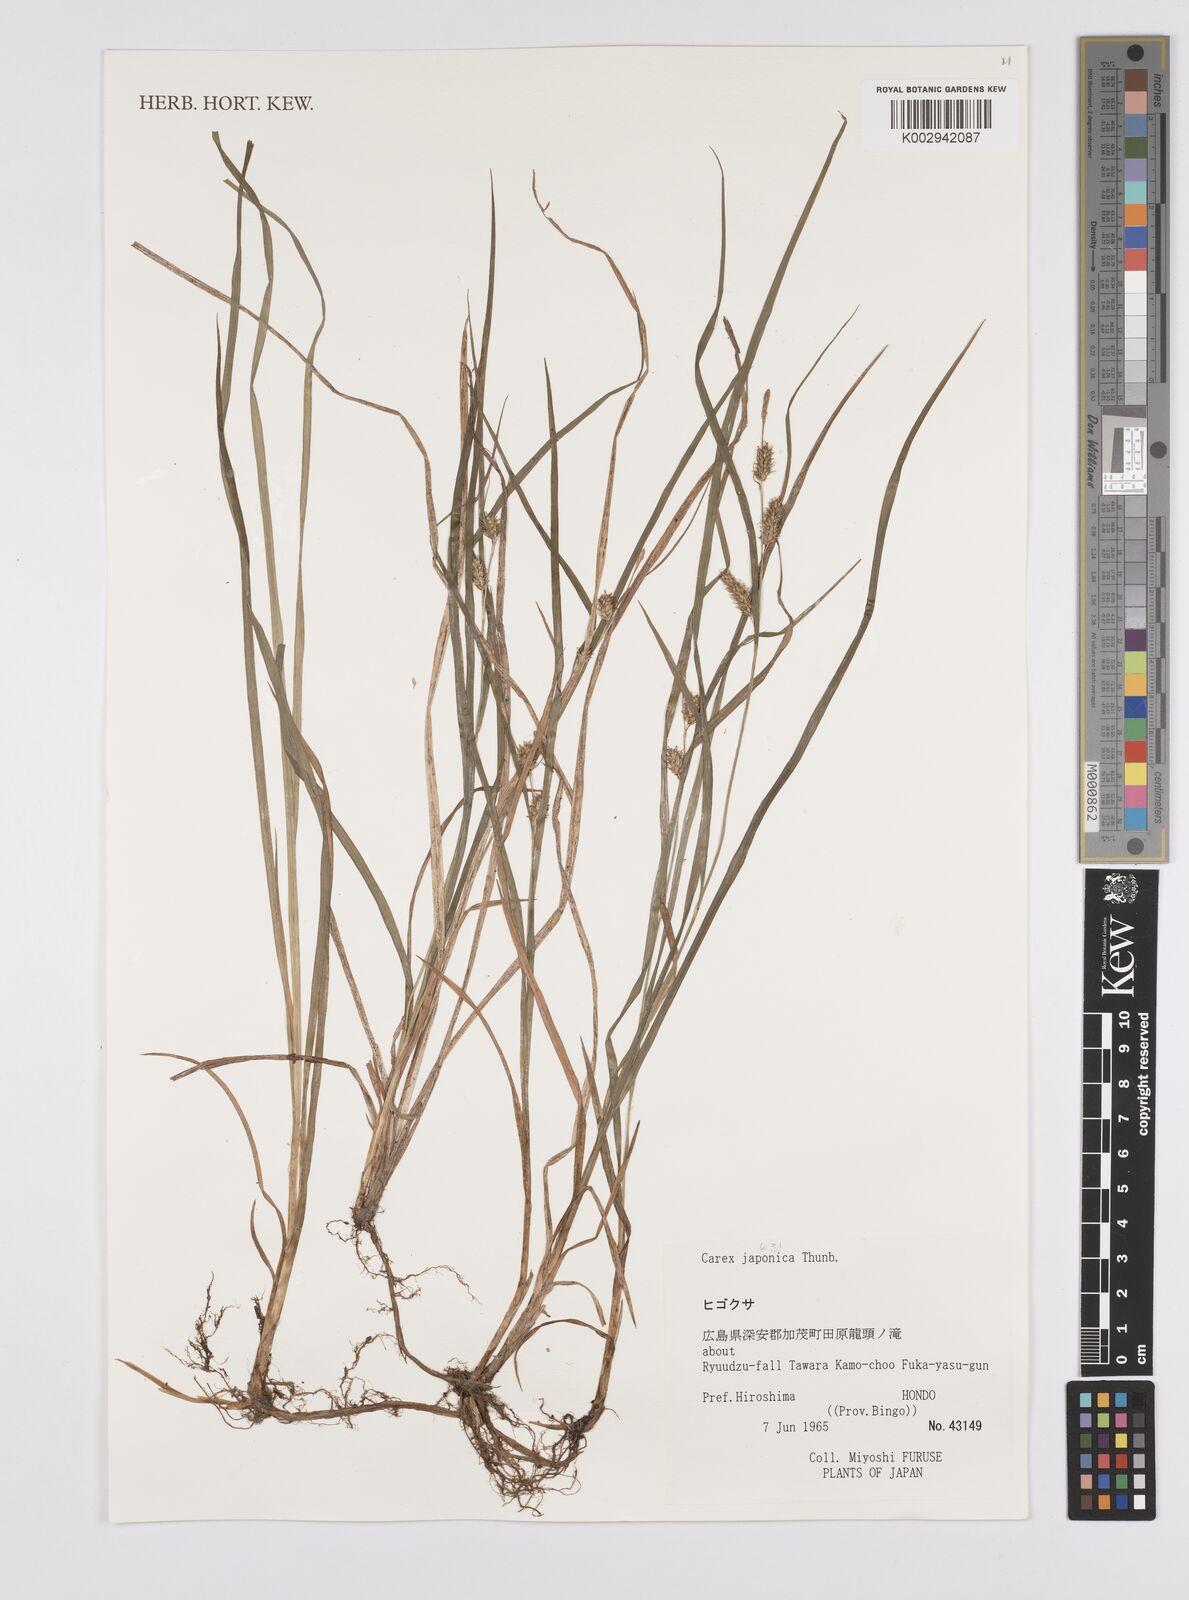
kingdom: Plantae
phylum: Tracheophyta
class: Liliopsida
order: Poales
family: Cyperaceae
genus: Carex
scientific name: Carex japonica
